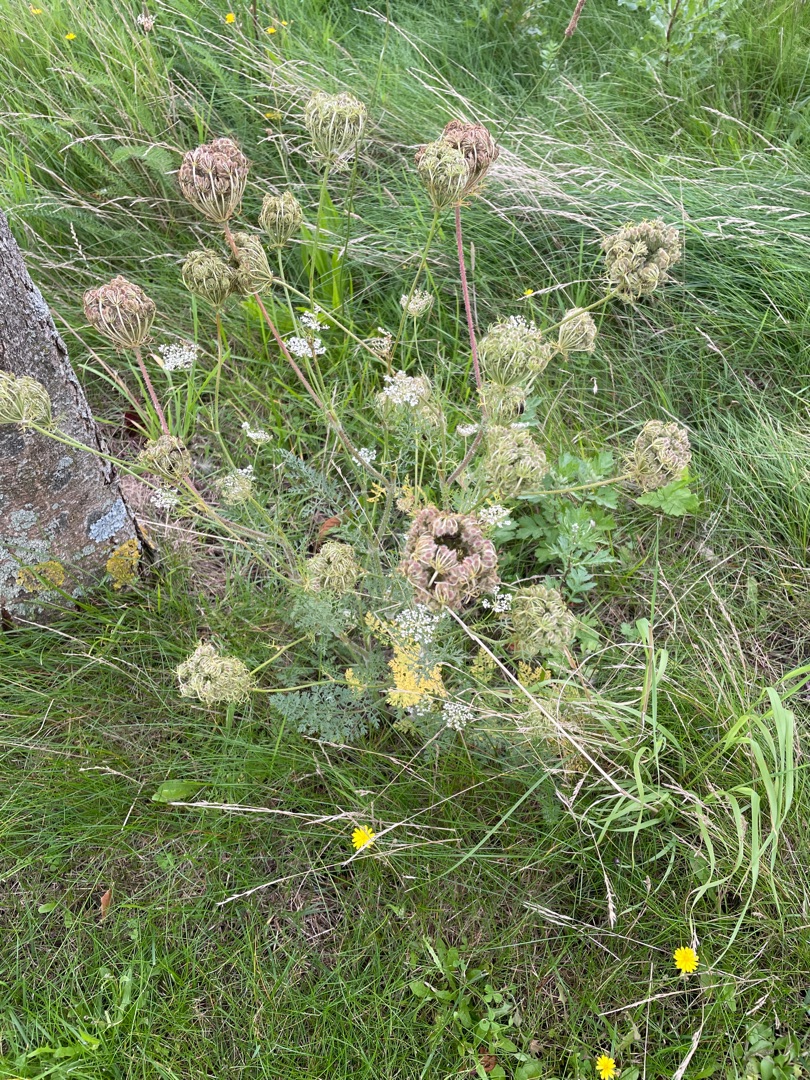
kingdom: Plantae
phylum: Tracheophyta
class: Magnoliopsida
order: Apiales
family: Apiaceae
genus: Daucus
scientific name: Daucus carota
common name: Gulerod
